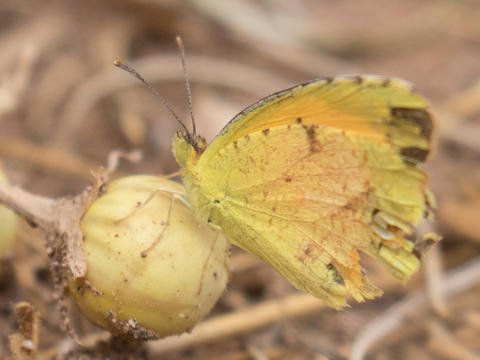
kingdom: Animalia
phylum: Arthropoda
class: Insecta
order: Lepidoptera
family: Pieridae
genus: Abaeis
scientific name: Abaeis nicippe
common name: Sleepy Orange
